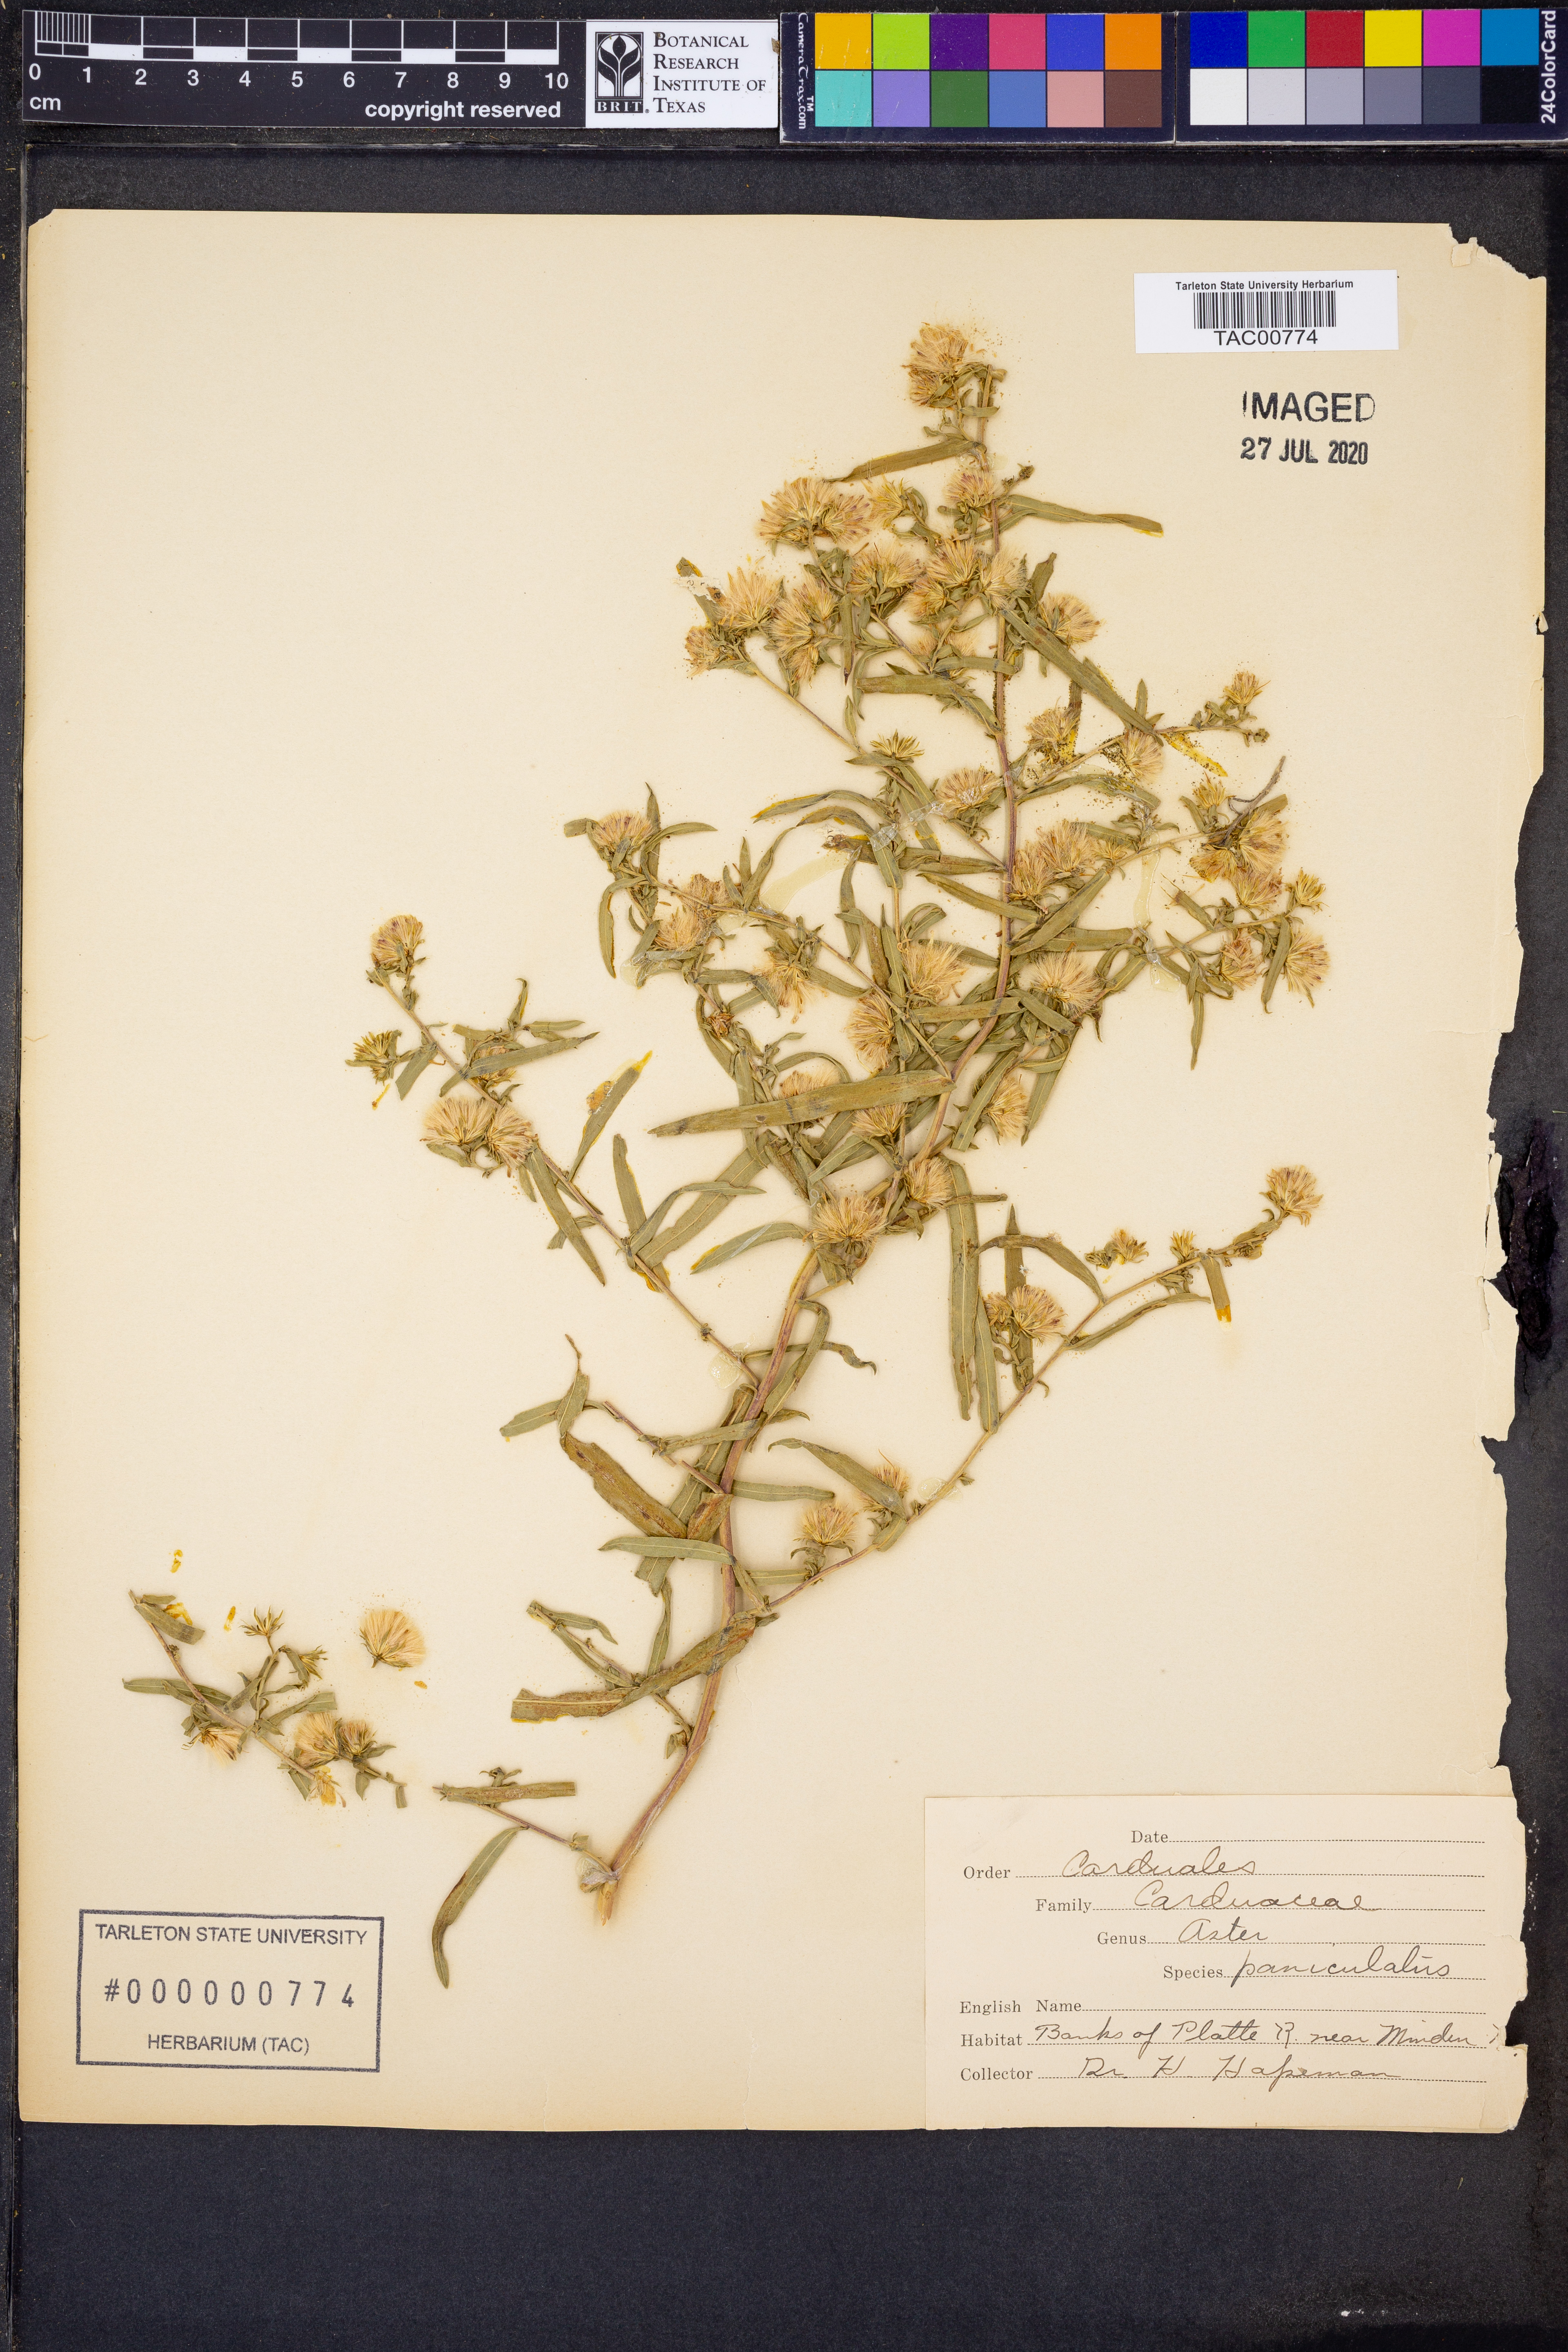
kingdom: Plantae
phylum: Tracheophyta
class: Magnoliopsida
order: Asterales
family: Asteraceae
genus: Symphyotrichum
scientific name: Symphyotrichum lanceolatum
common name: Panicled aster
